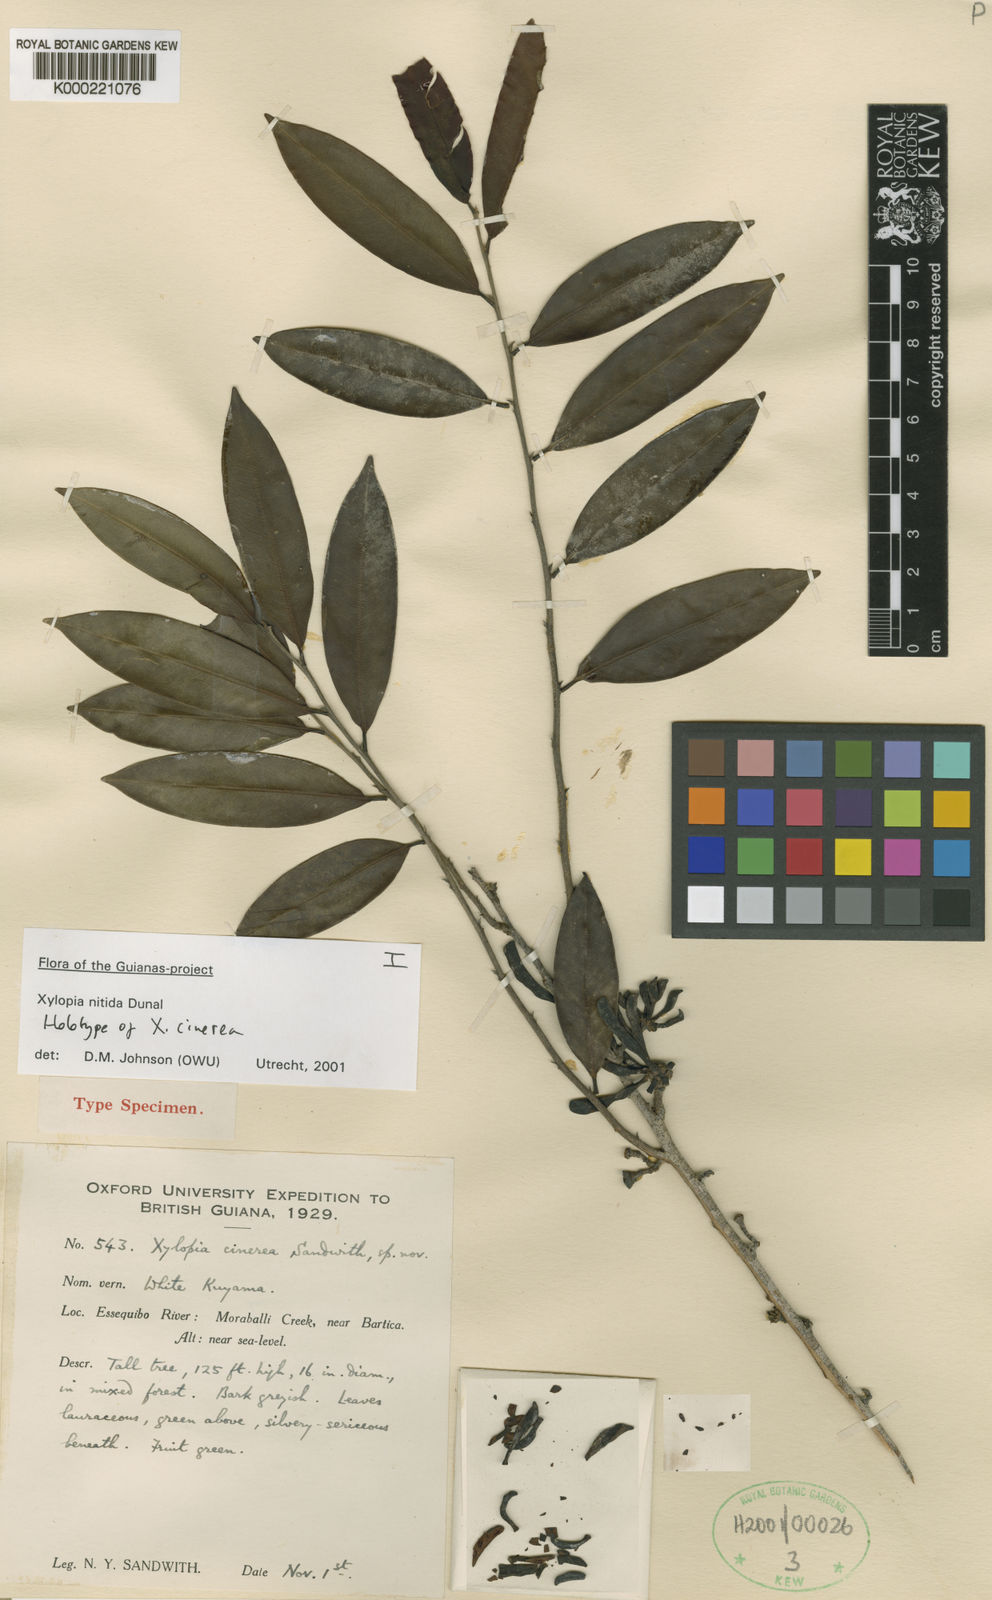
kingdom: Plantae
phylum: Tracheophyta
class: Magnoliopsida
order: Magnoliales
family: Annonaceae
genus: Xylopia
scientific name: Xylopia nitida
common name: White kuyama
